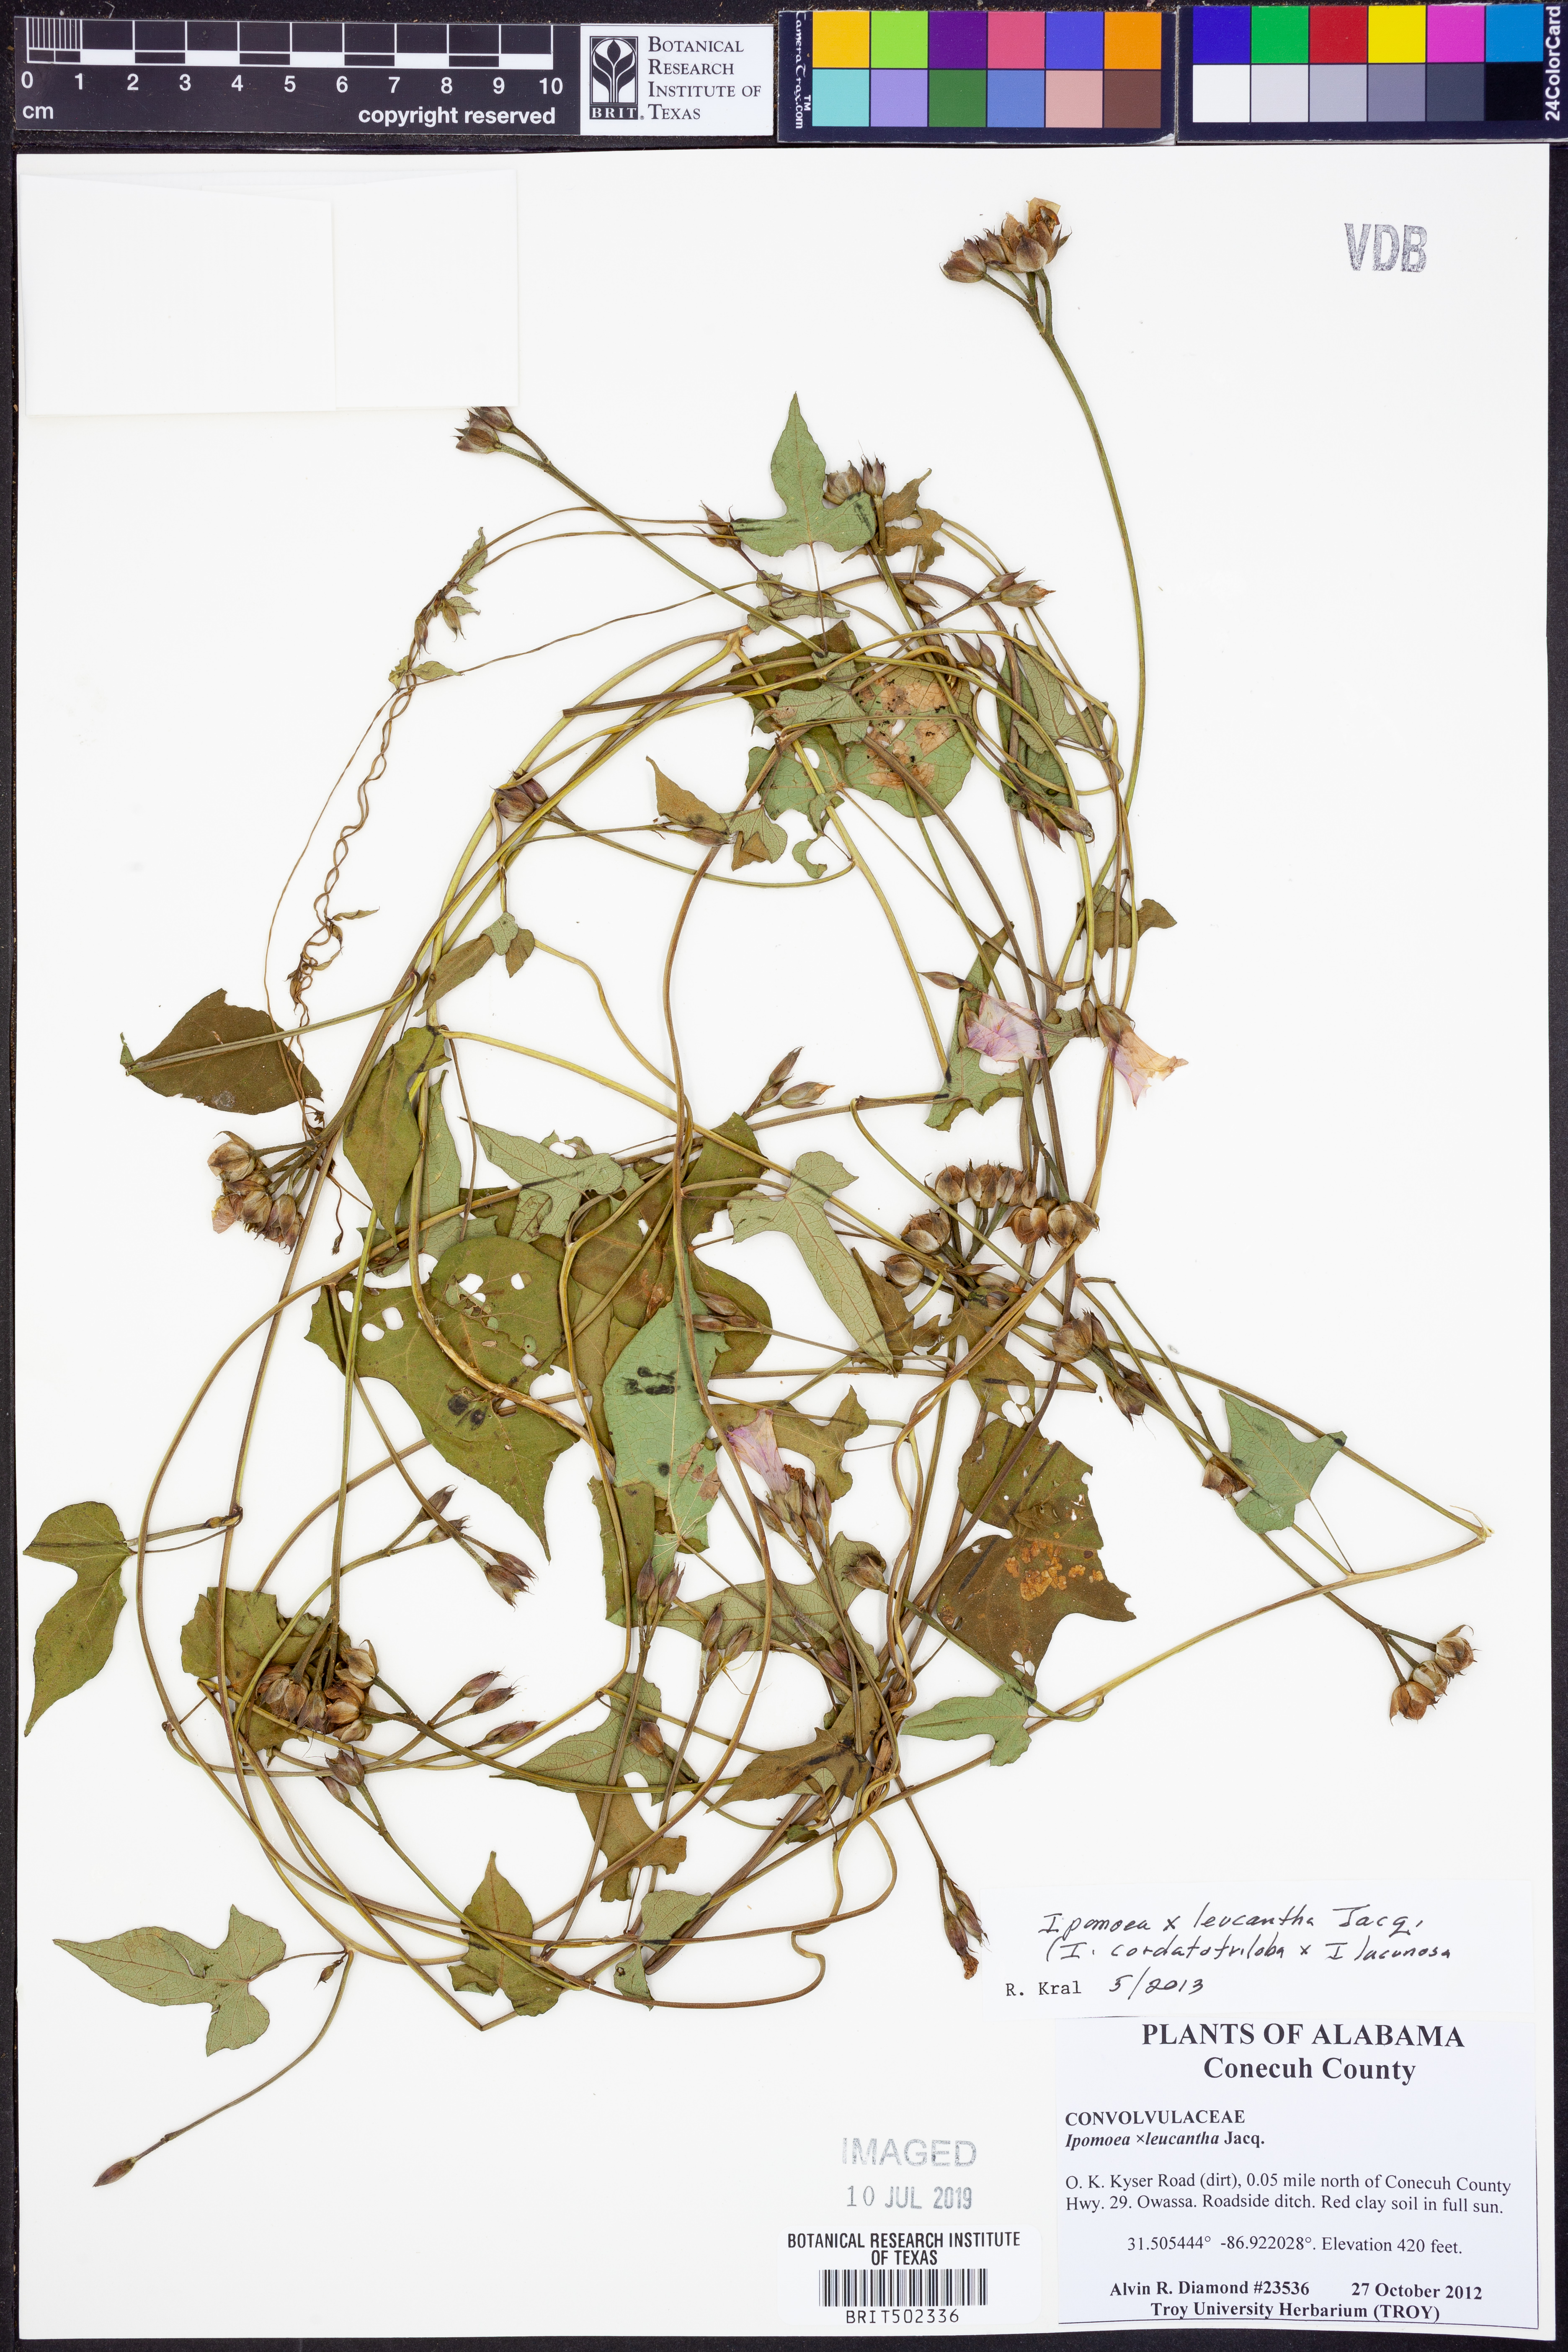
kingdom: Plantae
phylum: Tracheophyta
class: Magnoliopsida
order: Solanales
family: Convolvulaceae
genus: Ipomoea
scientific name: Ipomoea leucantha
